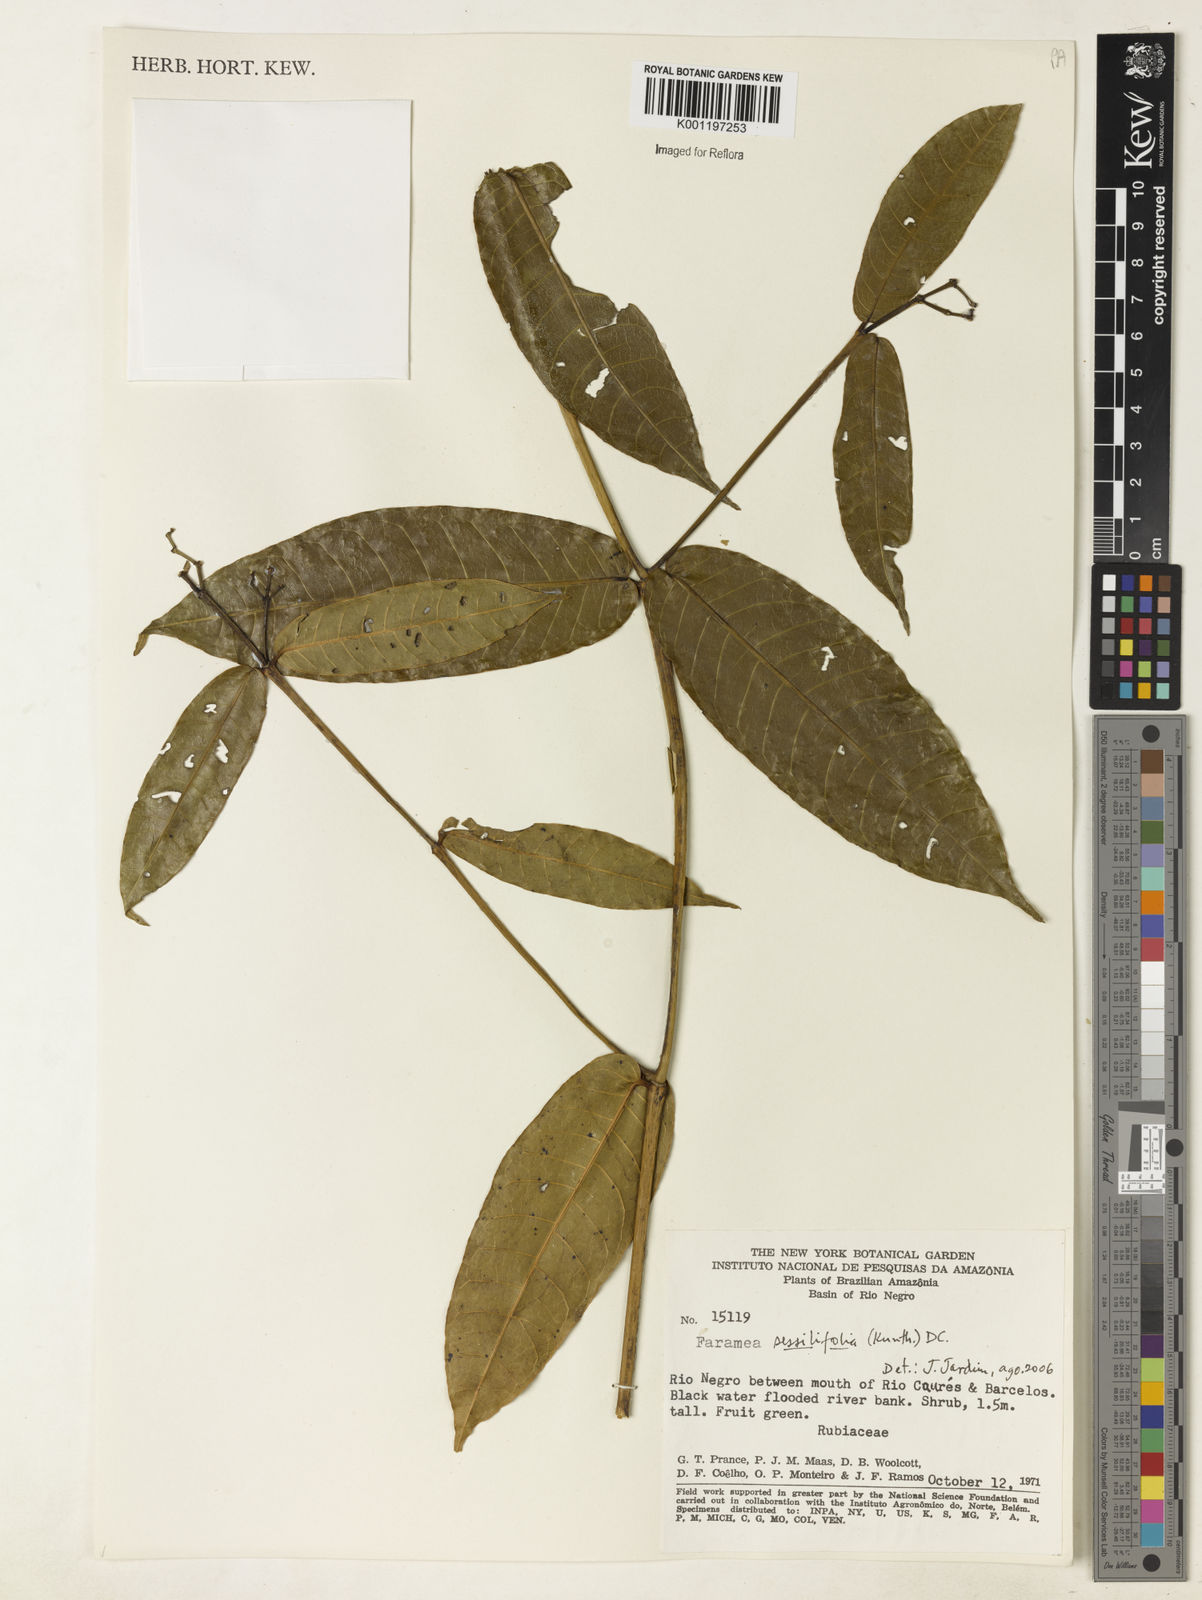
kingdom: Plantae
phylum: Tracheophyta
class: Magnoliopsida
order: Gentianales
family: Rubiaceae
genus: Faramea
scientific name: Faramea sessilifolia
